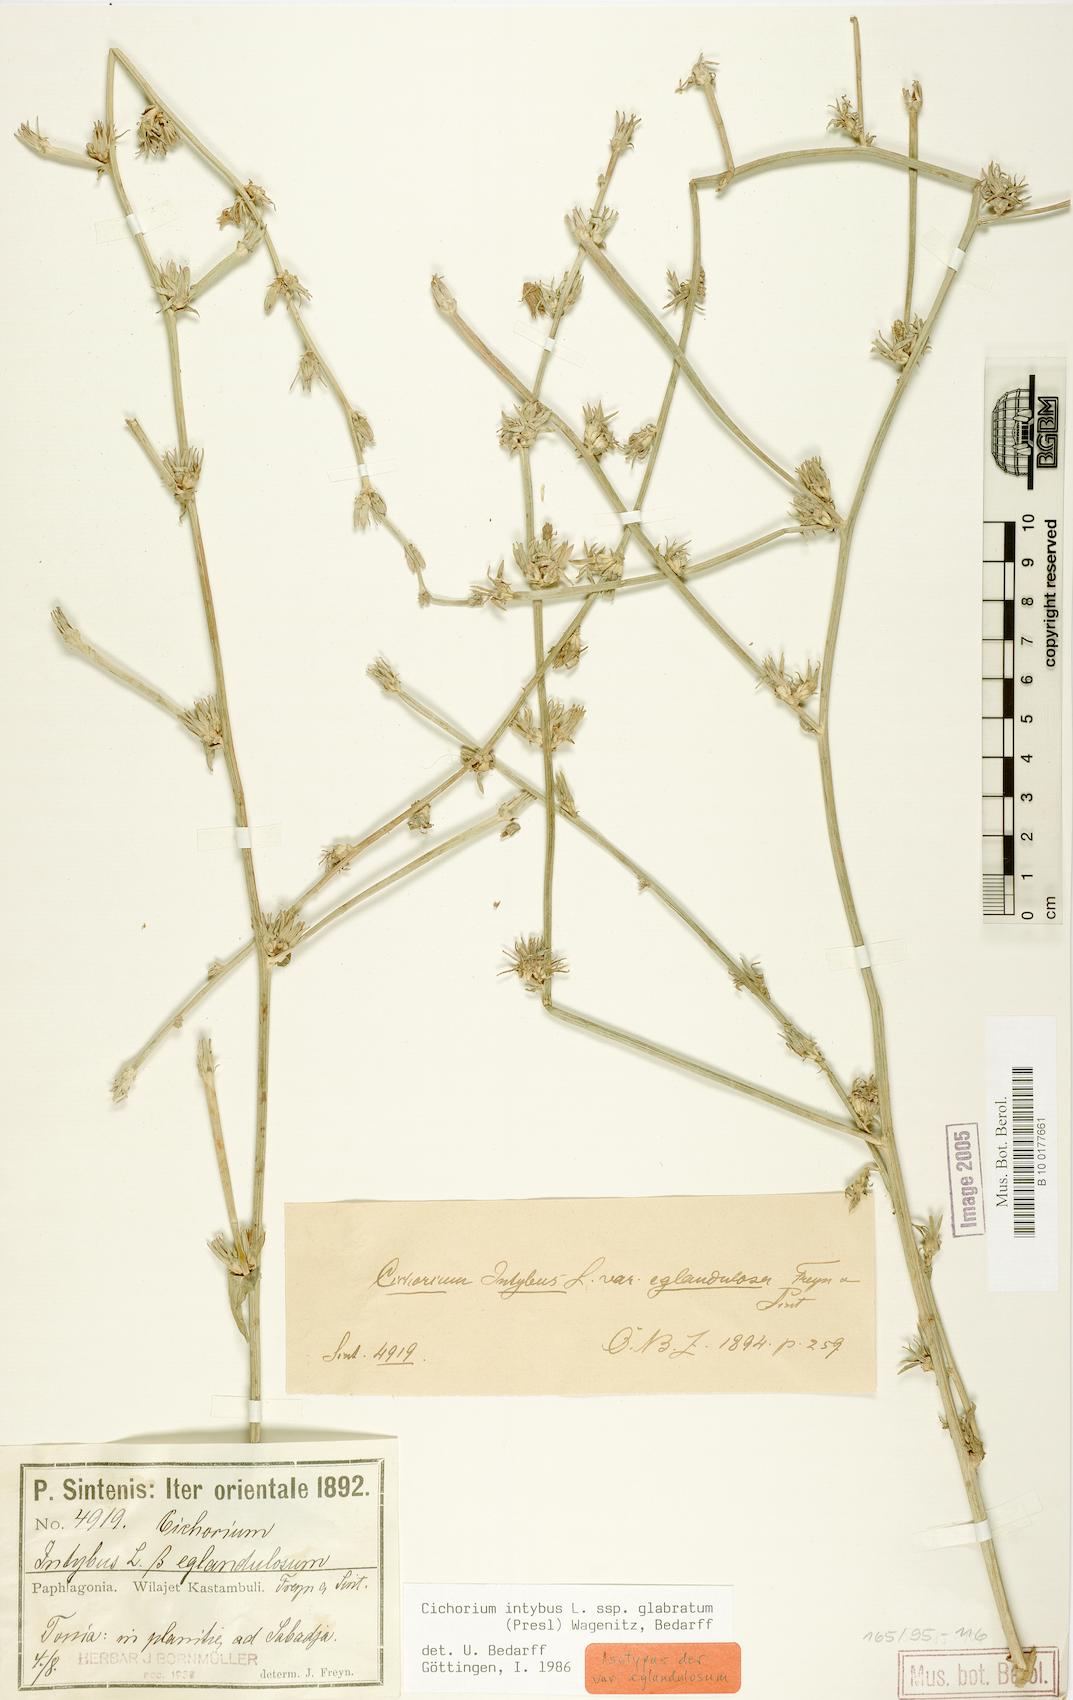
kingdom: Plantae
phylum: Tracheophyta
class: Magnoliopsida
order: Asterales
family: Asteraceae
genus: Cichorium
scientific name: Cichorium intybus
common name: Chicory
